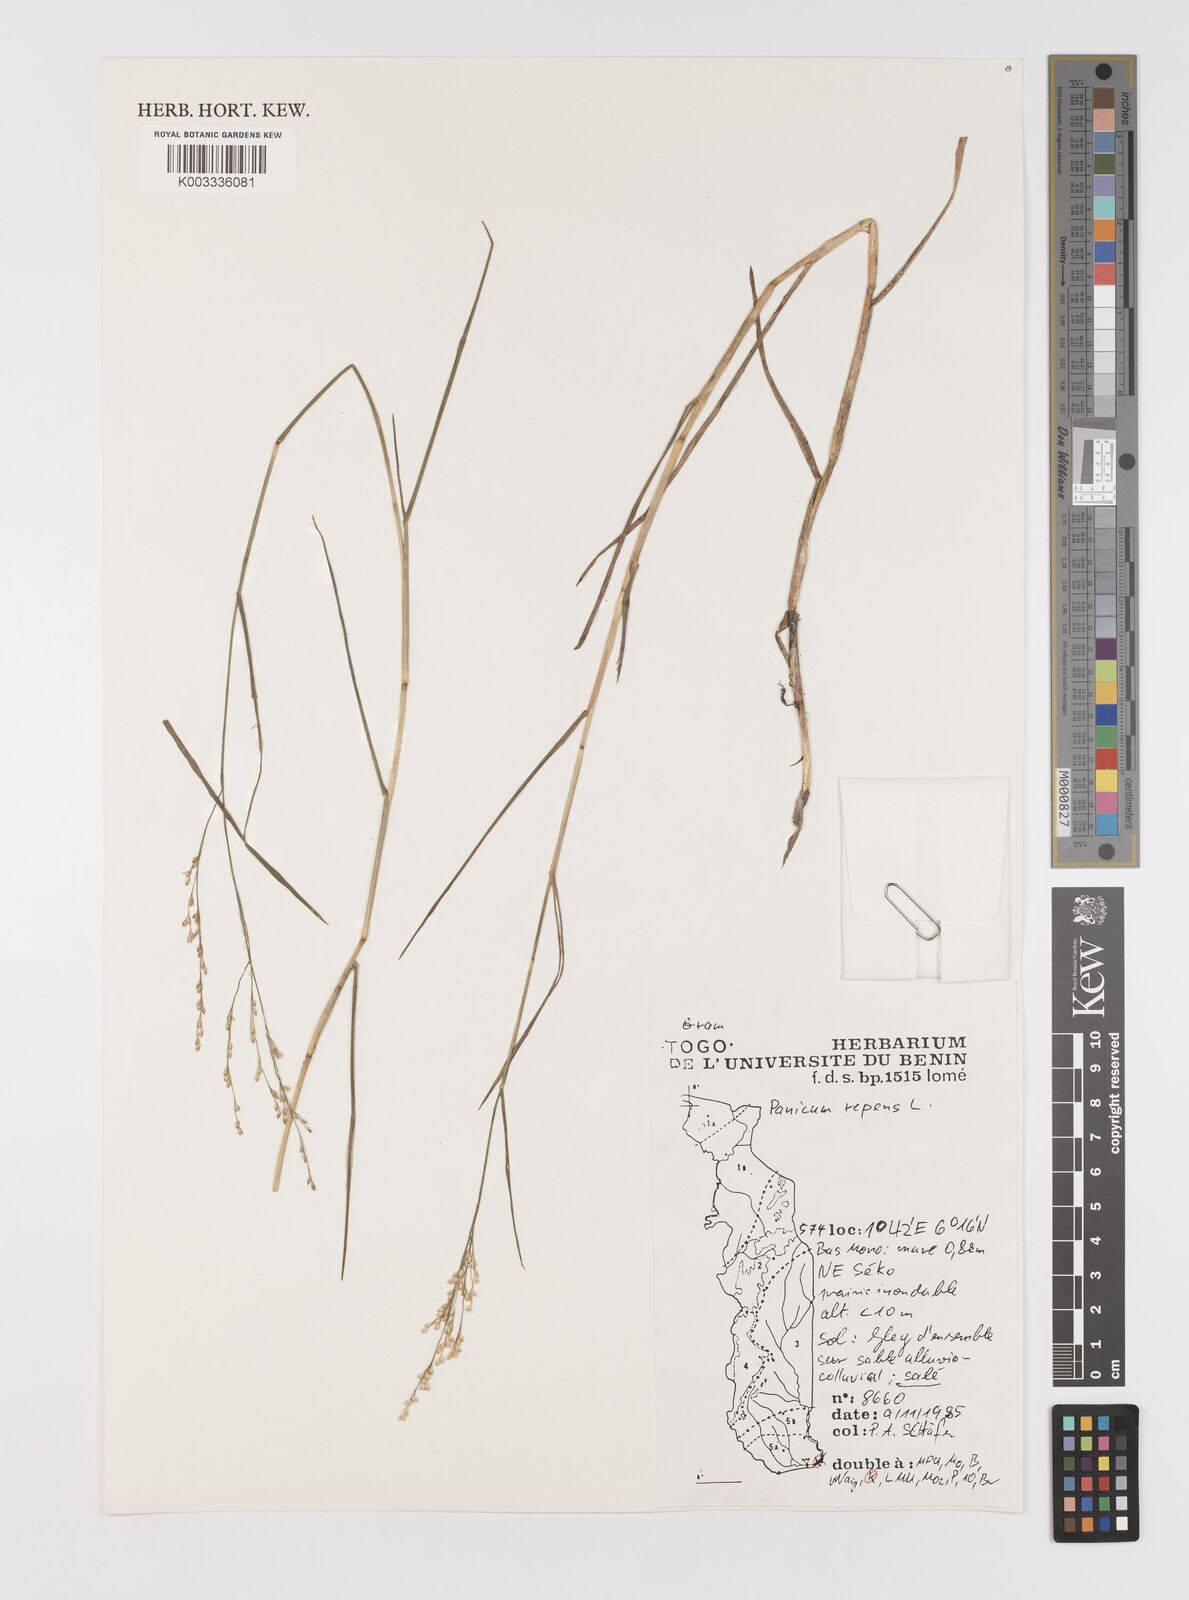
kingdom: Plantae
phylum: Tracheophyta
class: Liliopsida
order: Poales
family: Poaceae
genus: Panicum
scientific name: Panicum repens
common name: Torpedo grass
